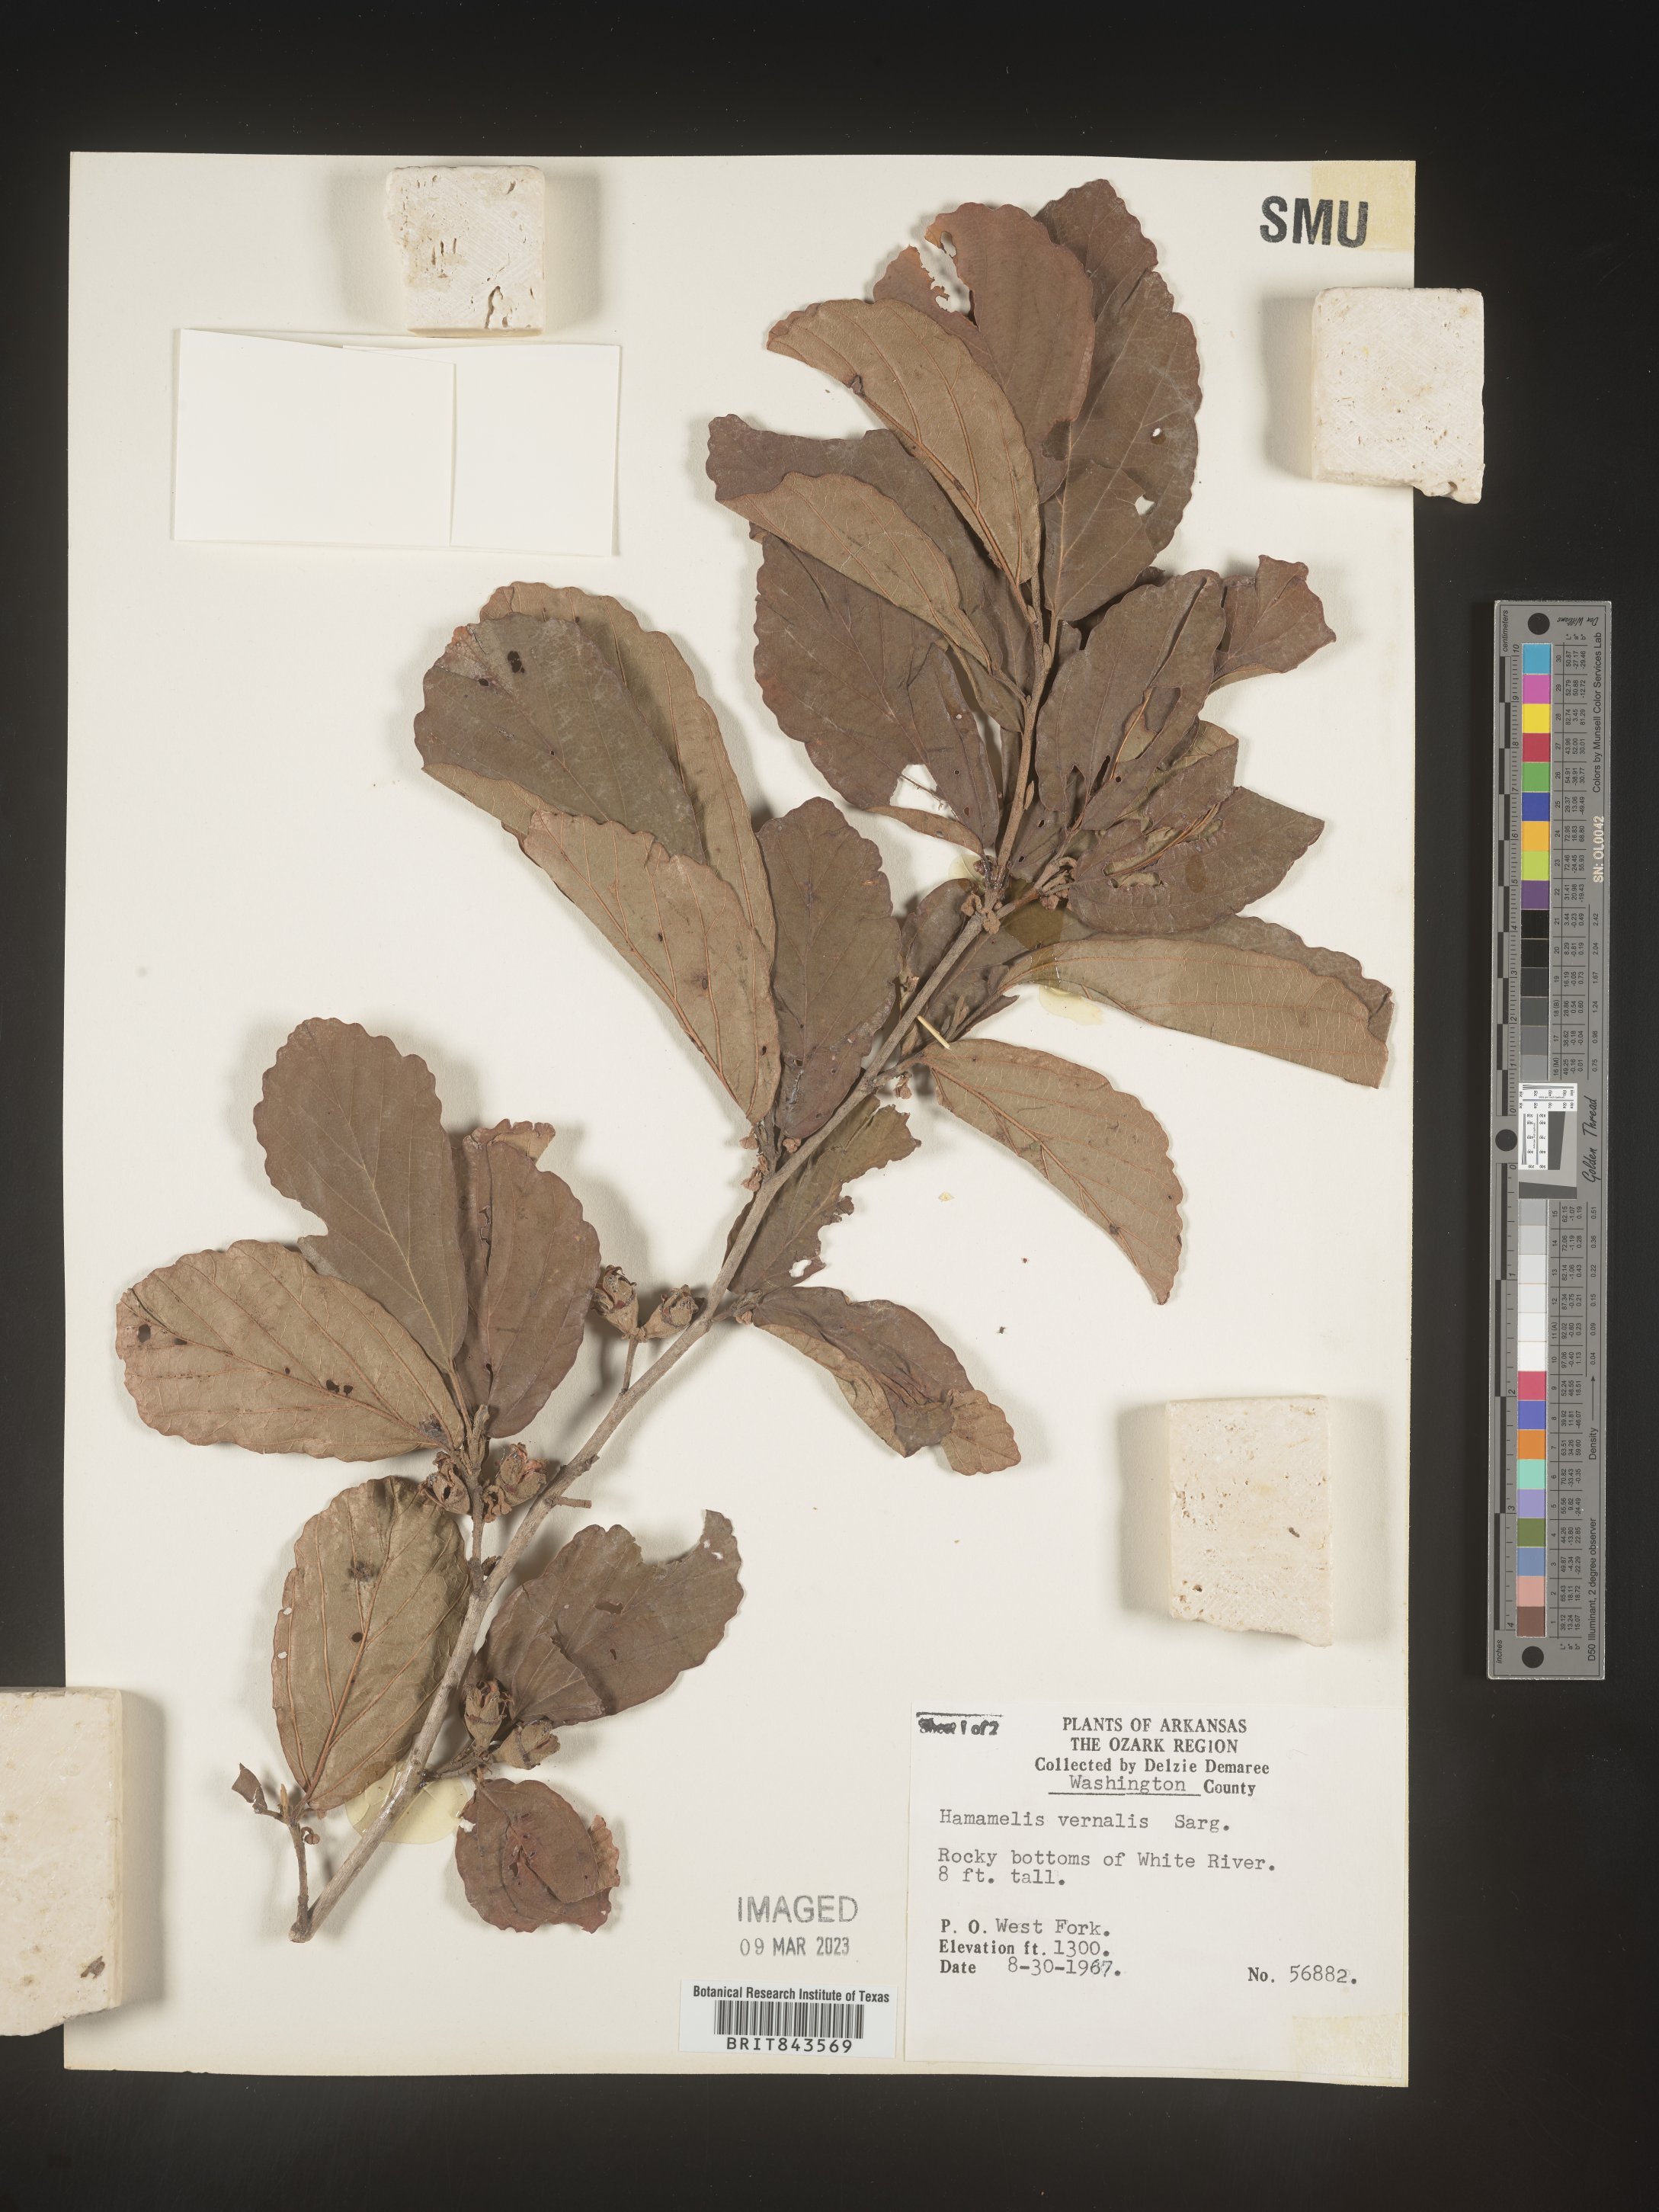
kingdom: Plantae
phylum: Tracheophyta
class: Magnoliopsida
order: Saxifragales
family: Hamamelidaceae
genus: Hamamelis
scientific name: Hamamelis vernalis
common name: Ozark witch-hazel
